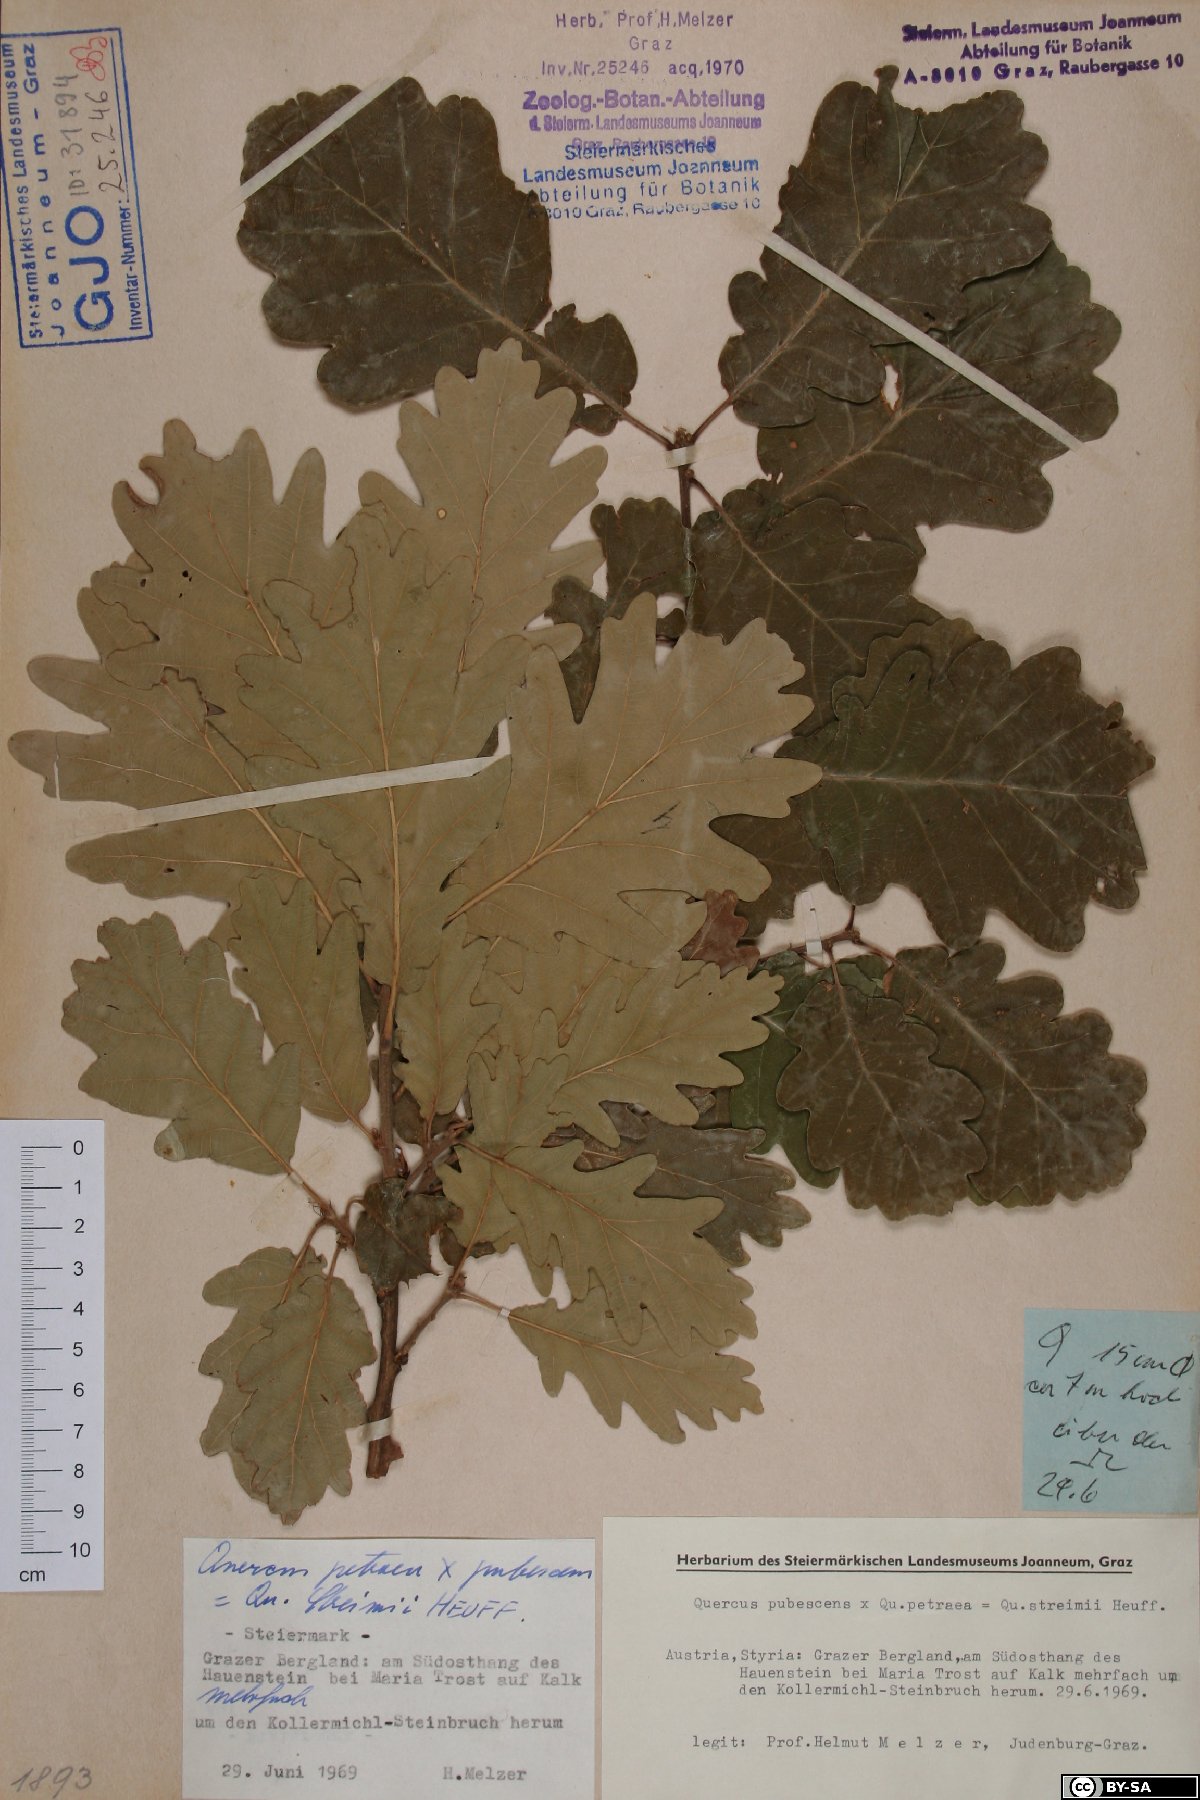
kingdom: Plantae
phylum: Tracheophyta
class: Magnoliopsida
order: Fagales
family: Fagaceae
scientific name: Fagaceae
